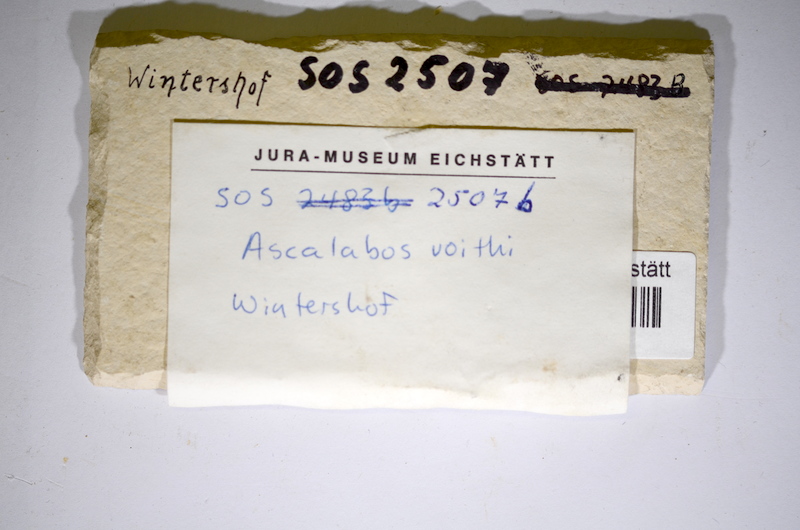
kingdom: Animalia
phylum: Chordata
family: Ascalaboidae
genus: Ascalabos
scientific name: Ascalabos voithii
